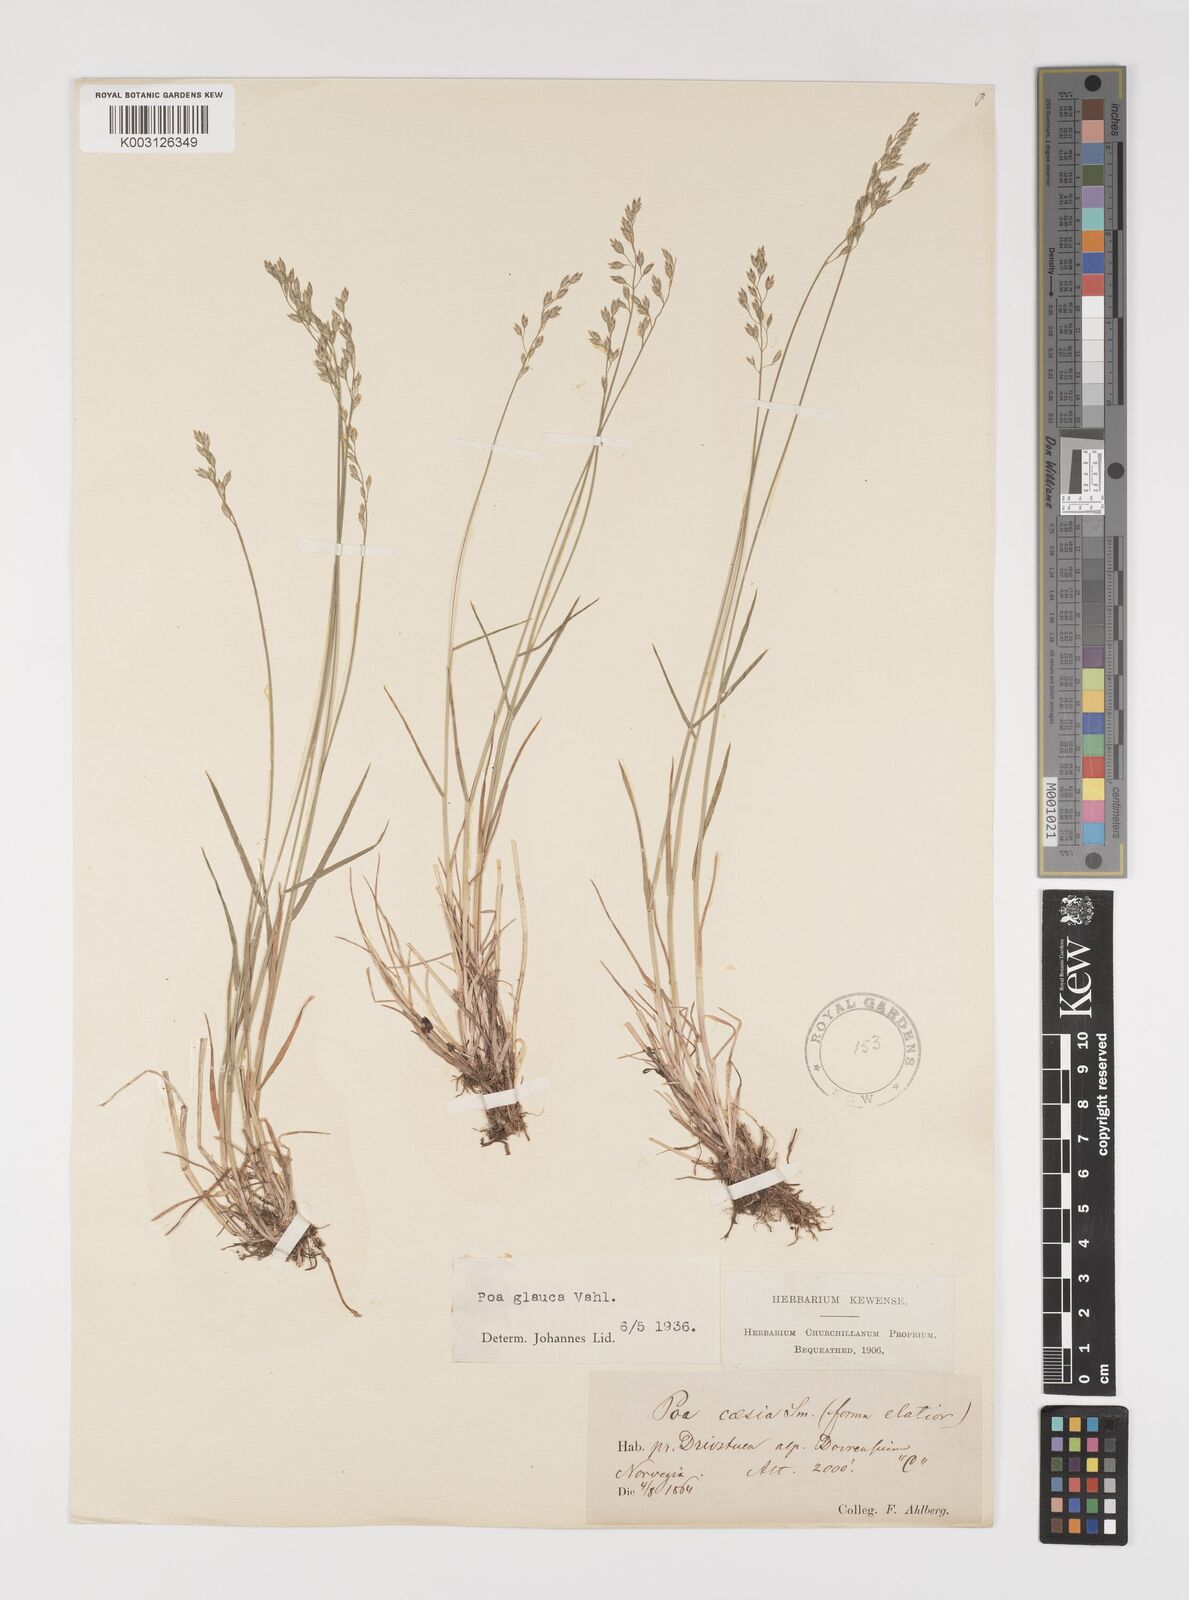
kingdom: Plantae
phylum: Tracheophyta
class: Liliopsida
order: Poales
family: Poaceae
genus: Poa
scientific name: Poa glauca
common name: Glaucous bluegrass
